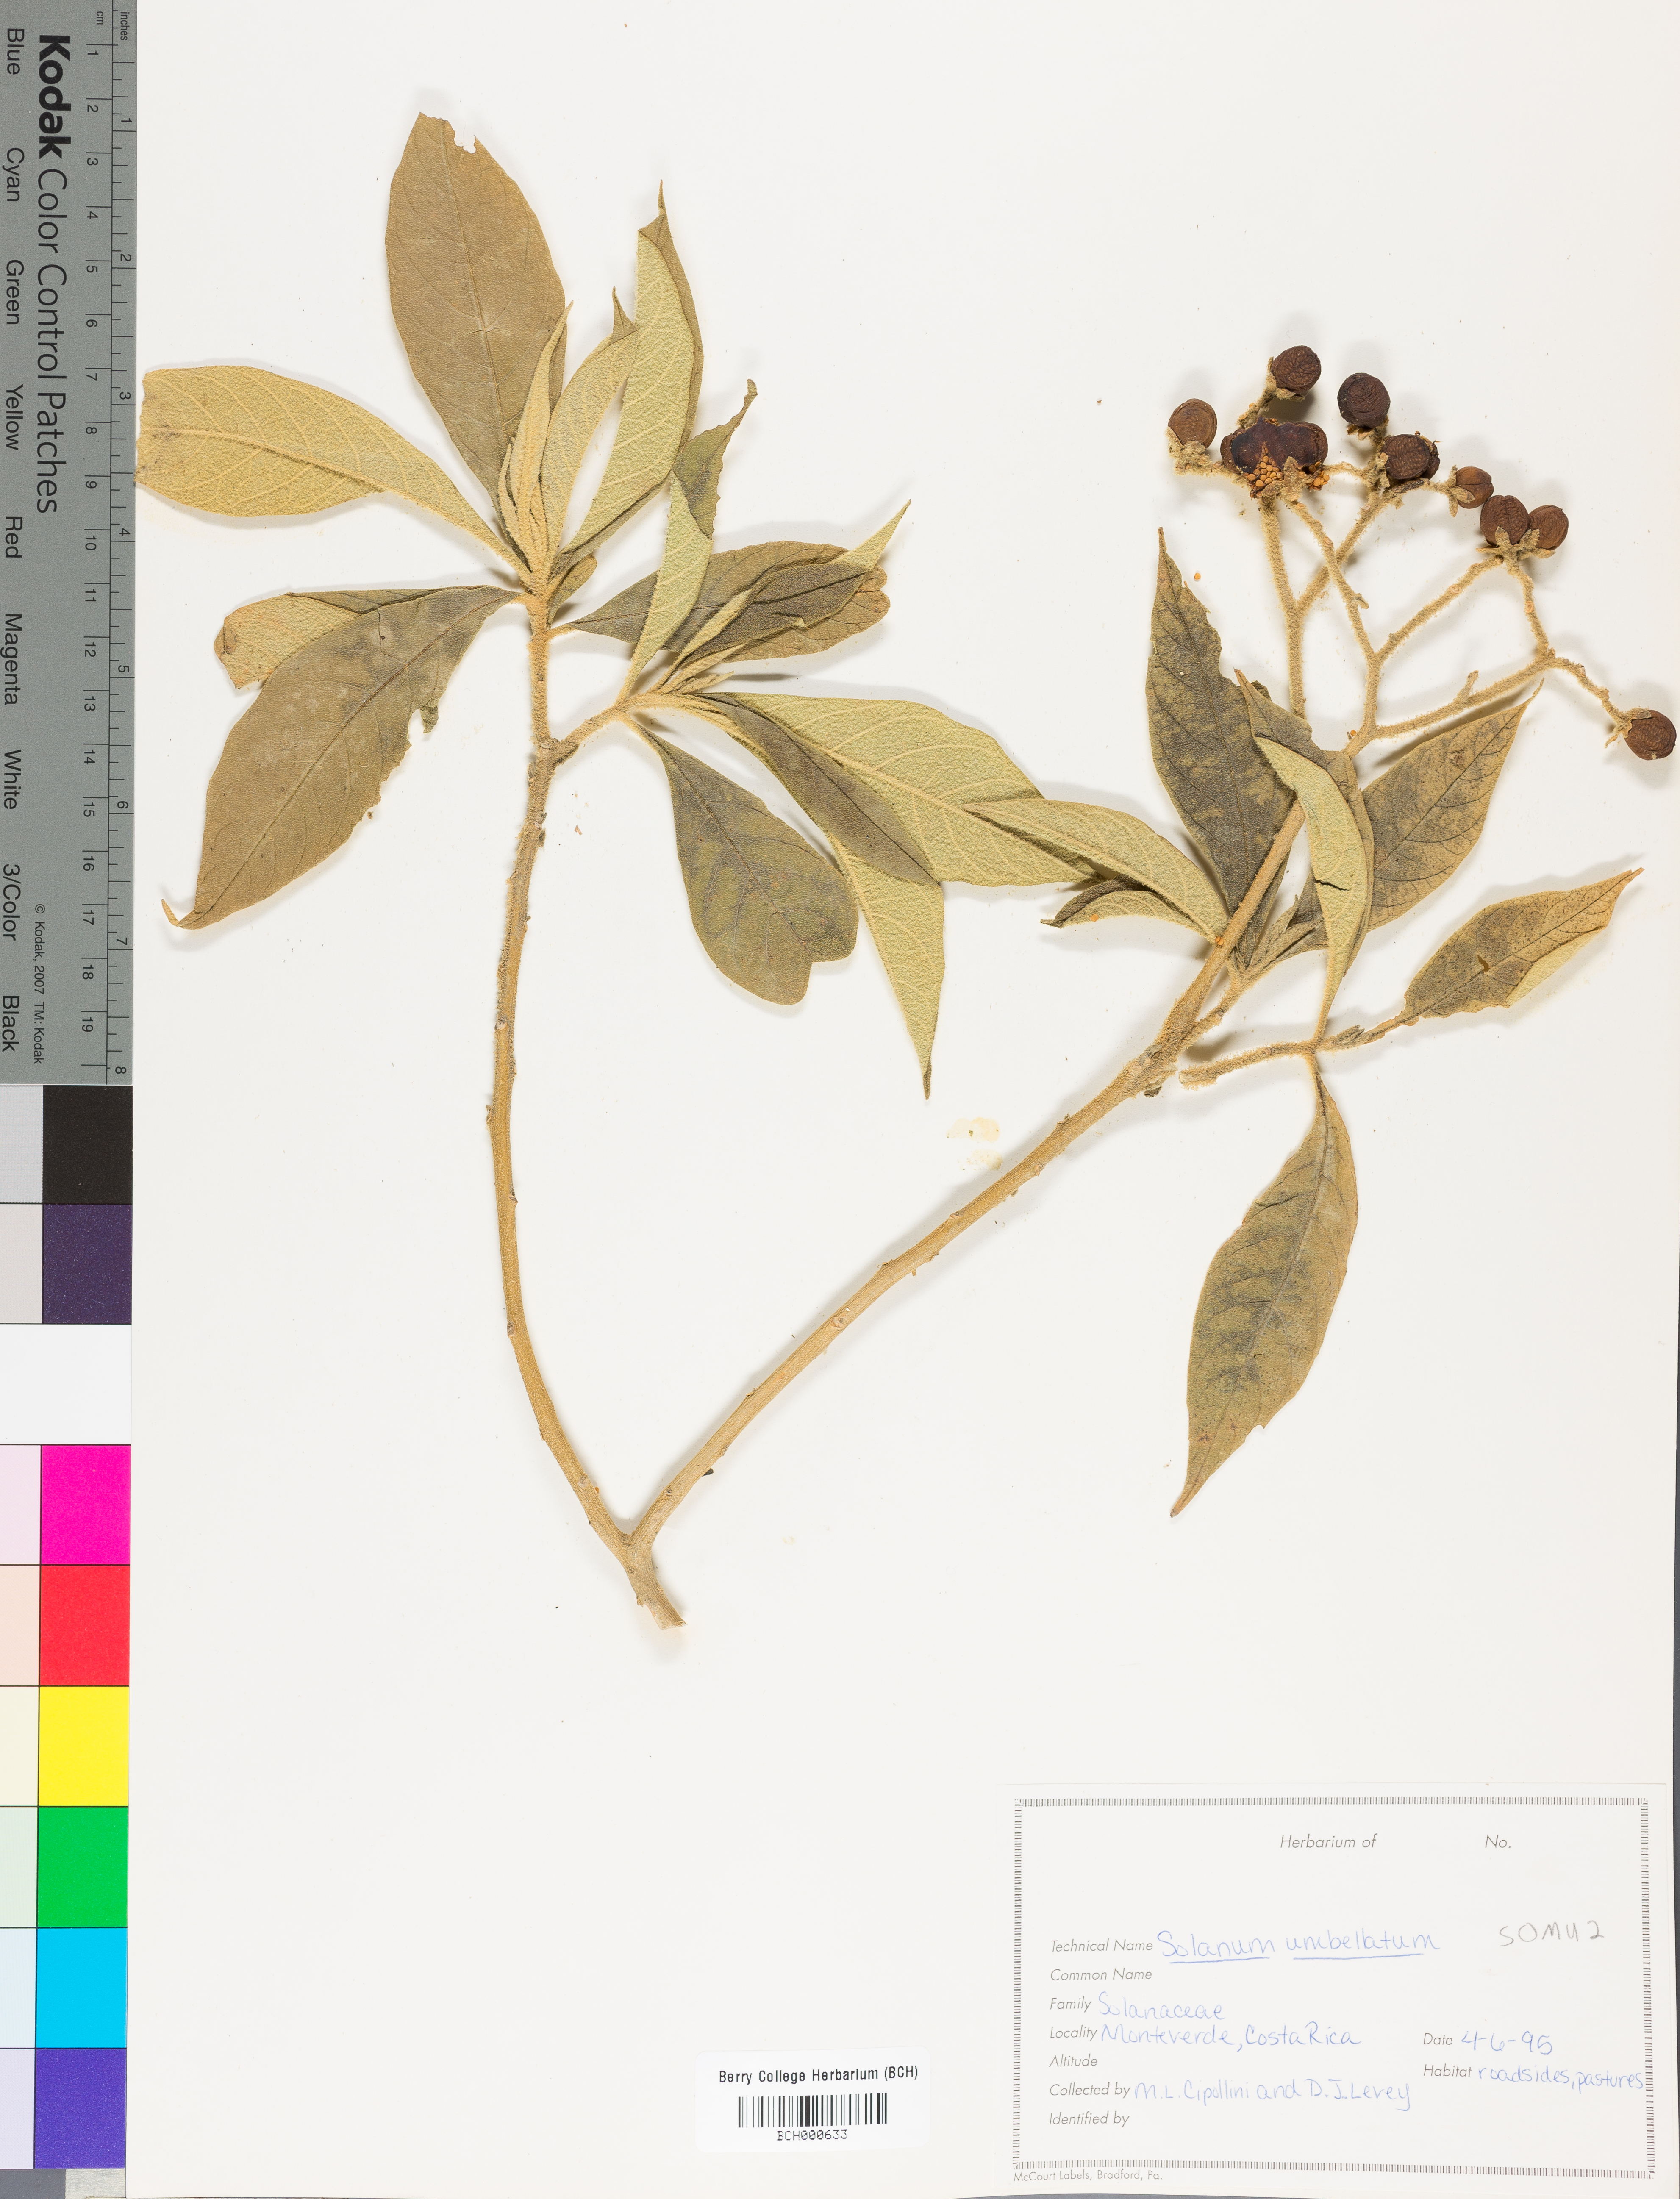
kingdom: Plantae
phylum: Tracheophyta
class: Magnoliopsida
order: Solanales
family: Solanaceae
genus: Lycianthes
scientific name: Lycianthes pauciflora
